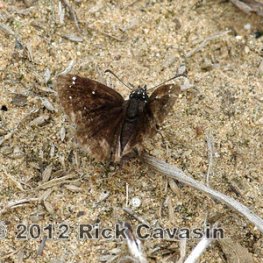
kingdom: Animalia
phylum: Arthropoda
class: Insecta
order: Lepidoptera
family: Hesperiidae
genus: Pholisora
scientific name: Pholisora catullus
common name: Common Sootywing
